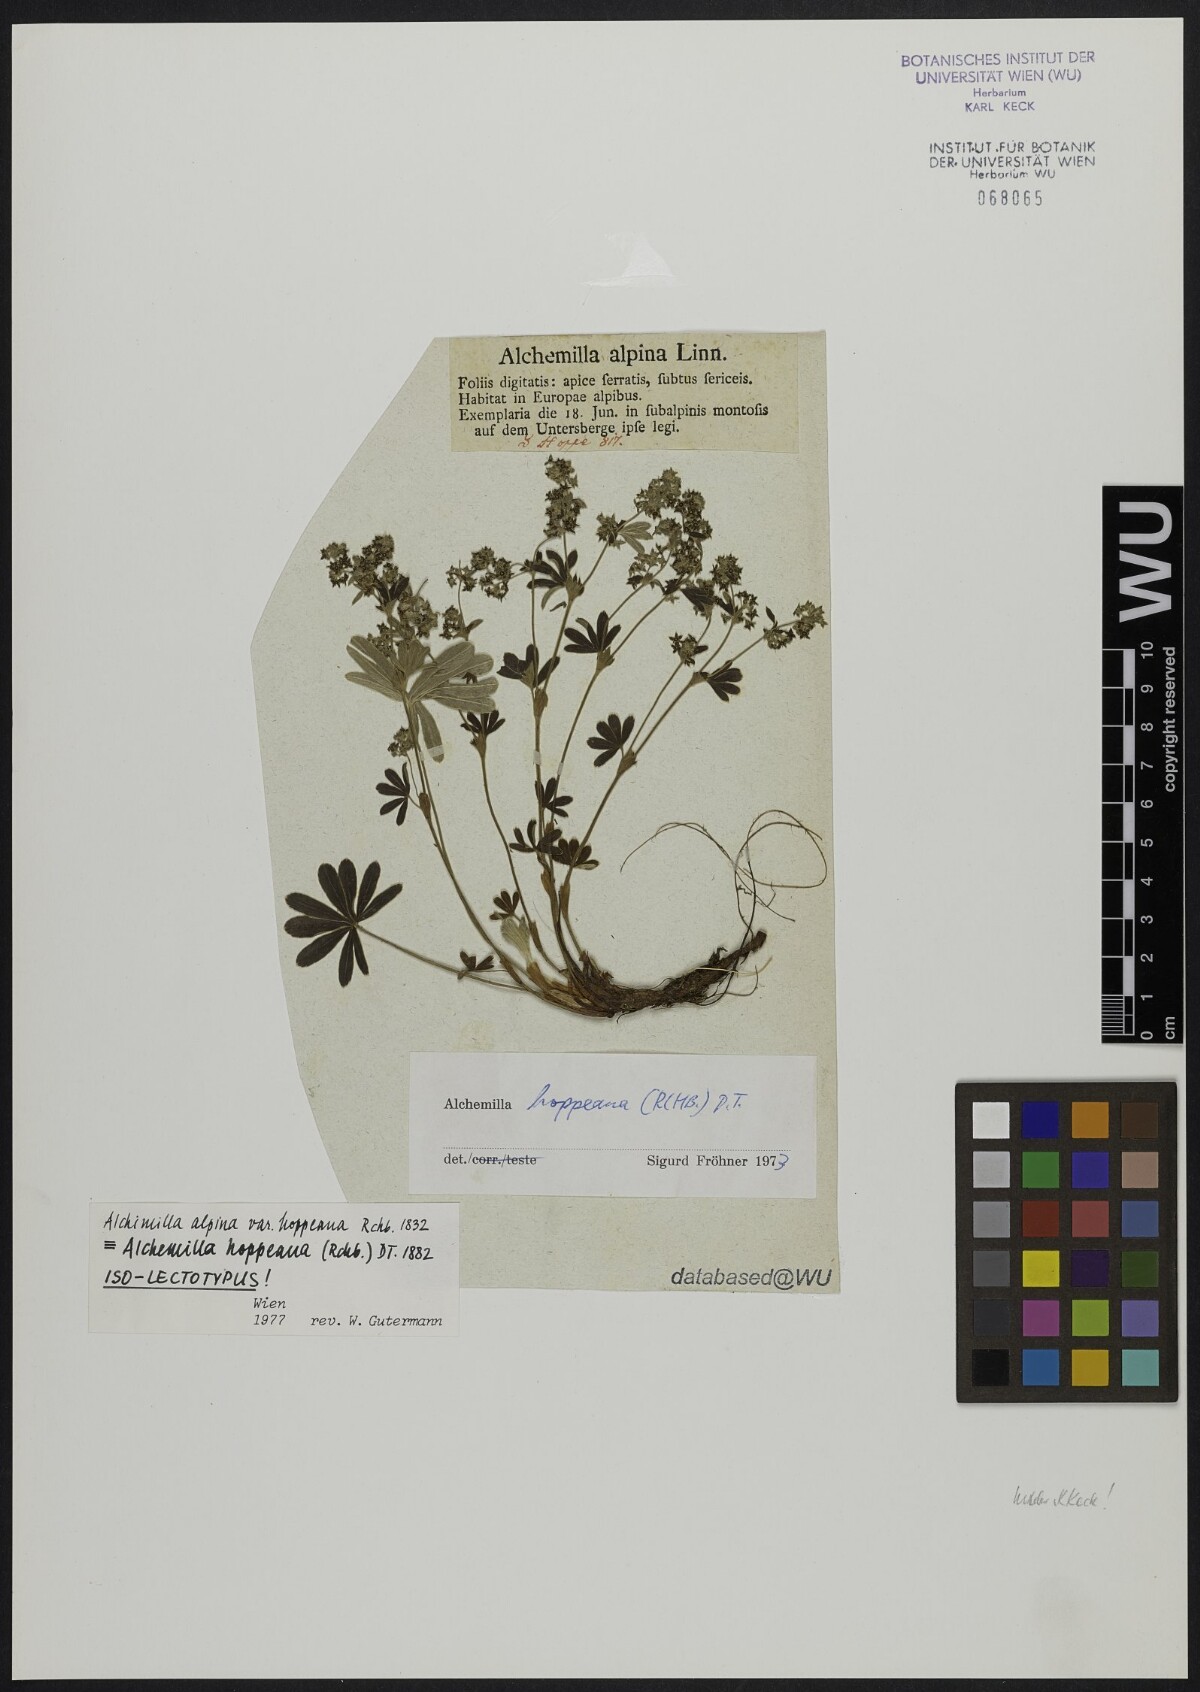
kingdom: Plantae
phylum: Tracheophyta
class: Magnoliopsida
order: Rosales
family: Rosaceae
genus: Alchemilla
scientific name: Alchemilla hoppeana
